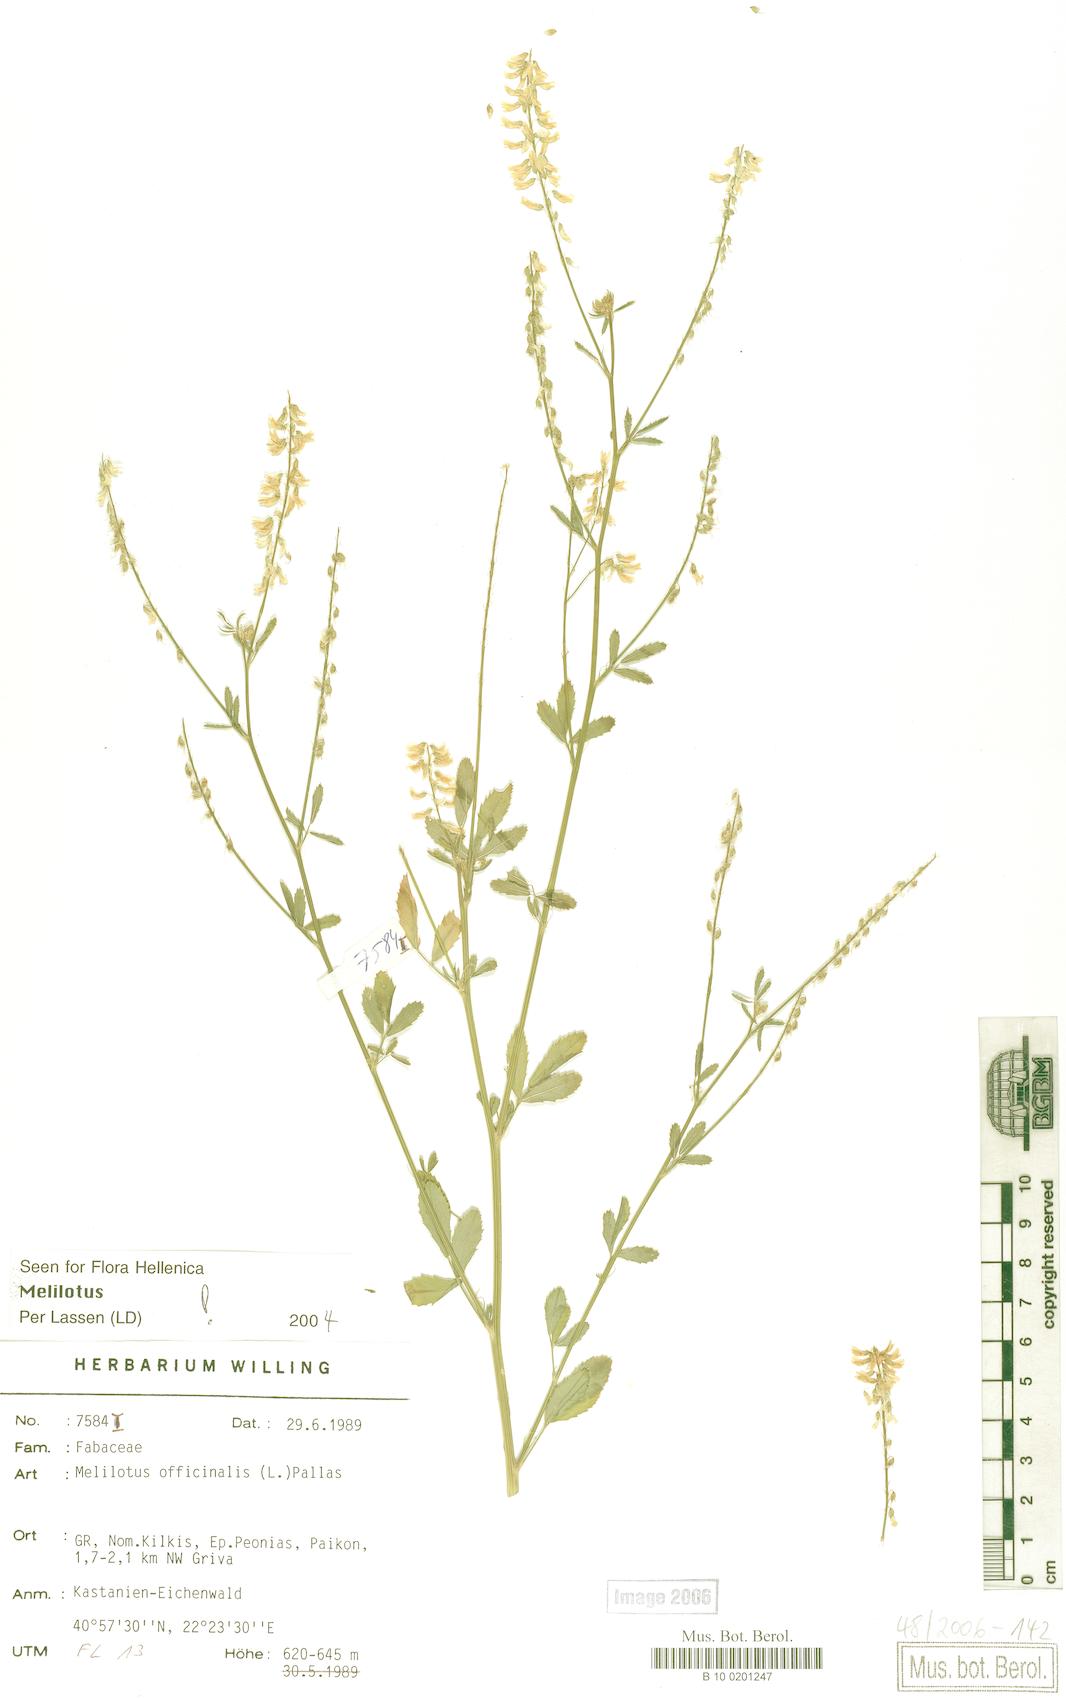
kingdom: Plantae
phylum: Tracheophyta
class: Magnoliopsida
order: Fabales
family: Fabaceae
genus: Melilotus
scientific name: Melilotus officinalis
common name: Sweetclover
